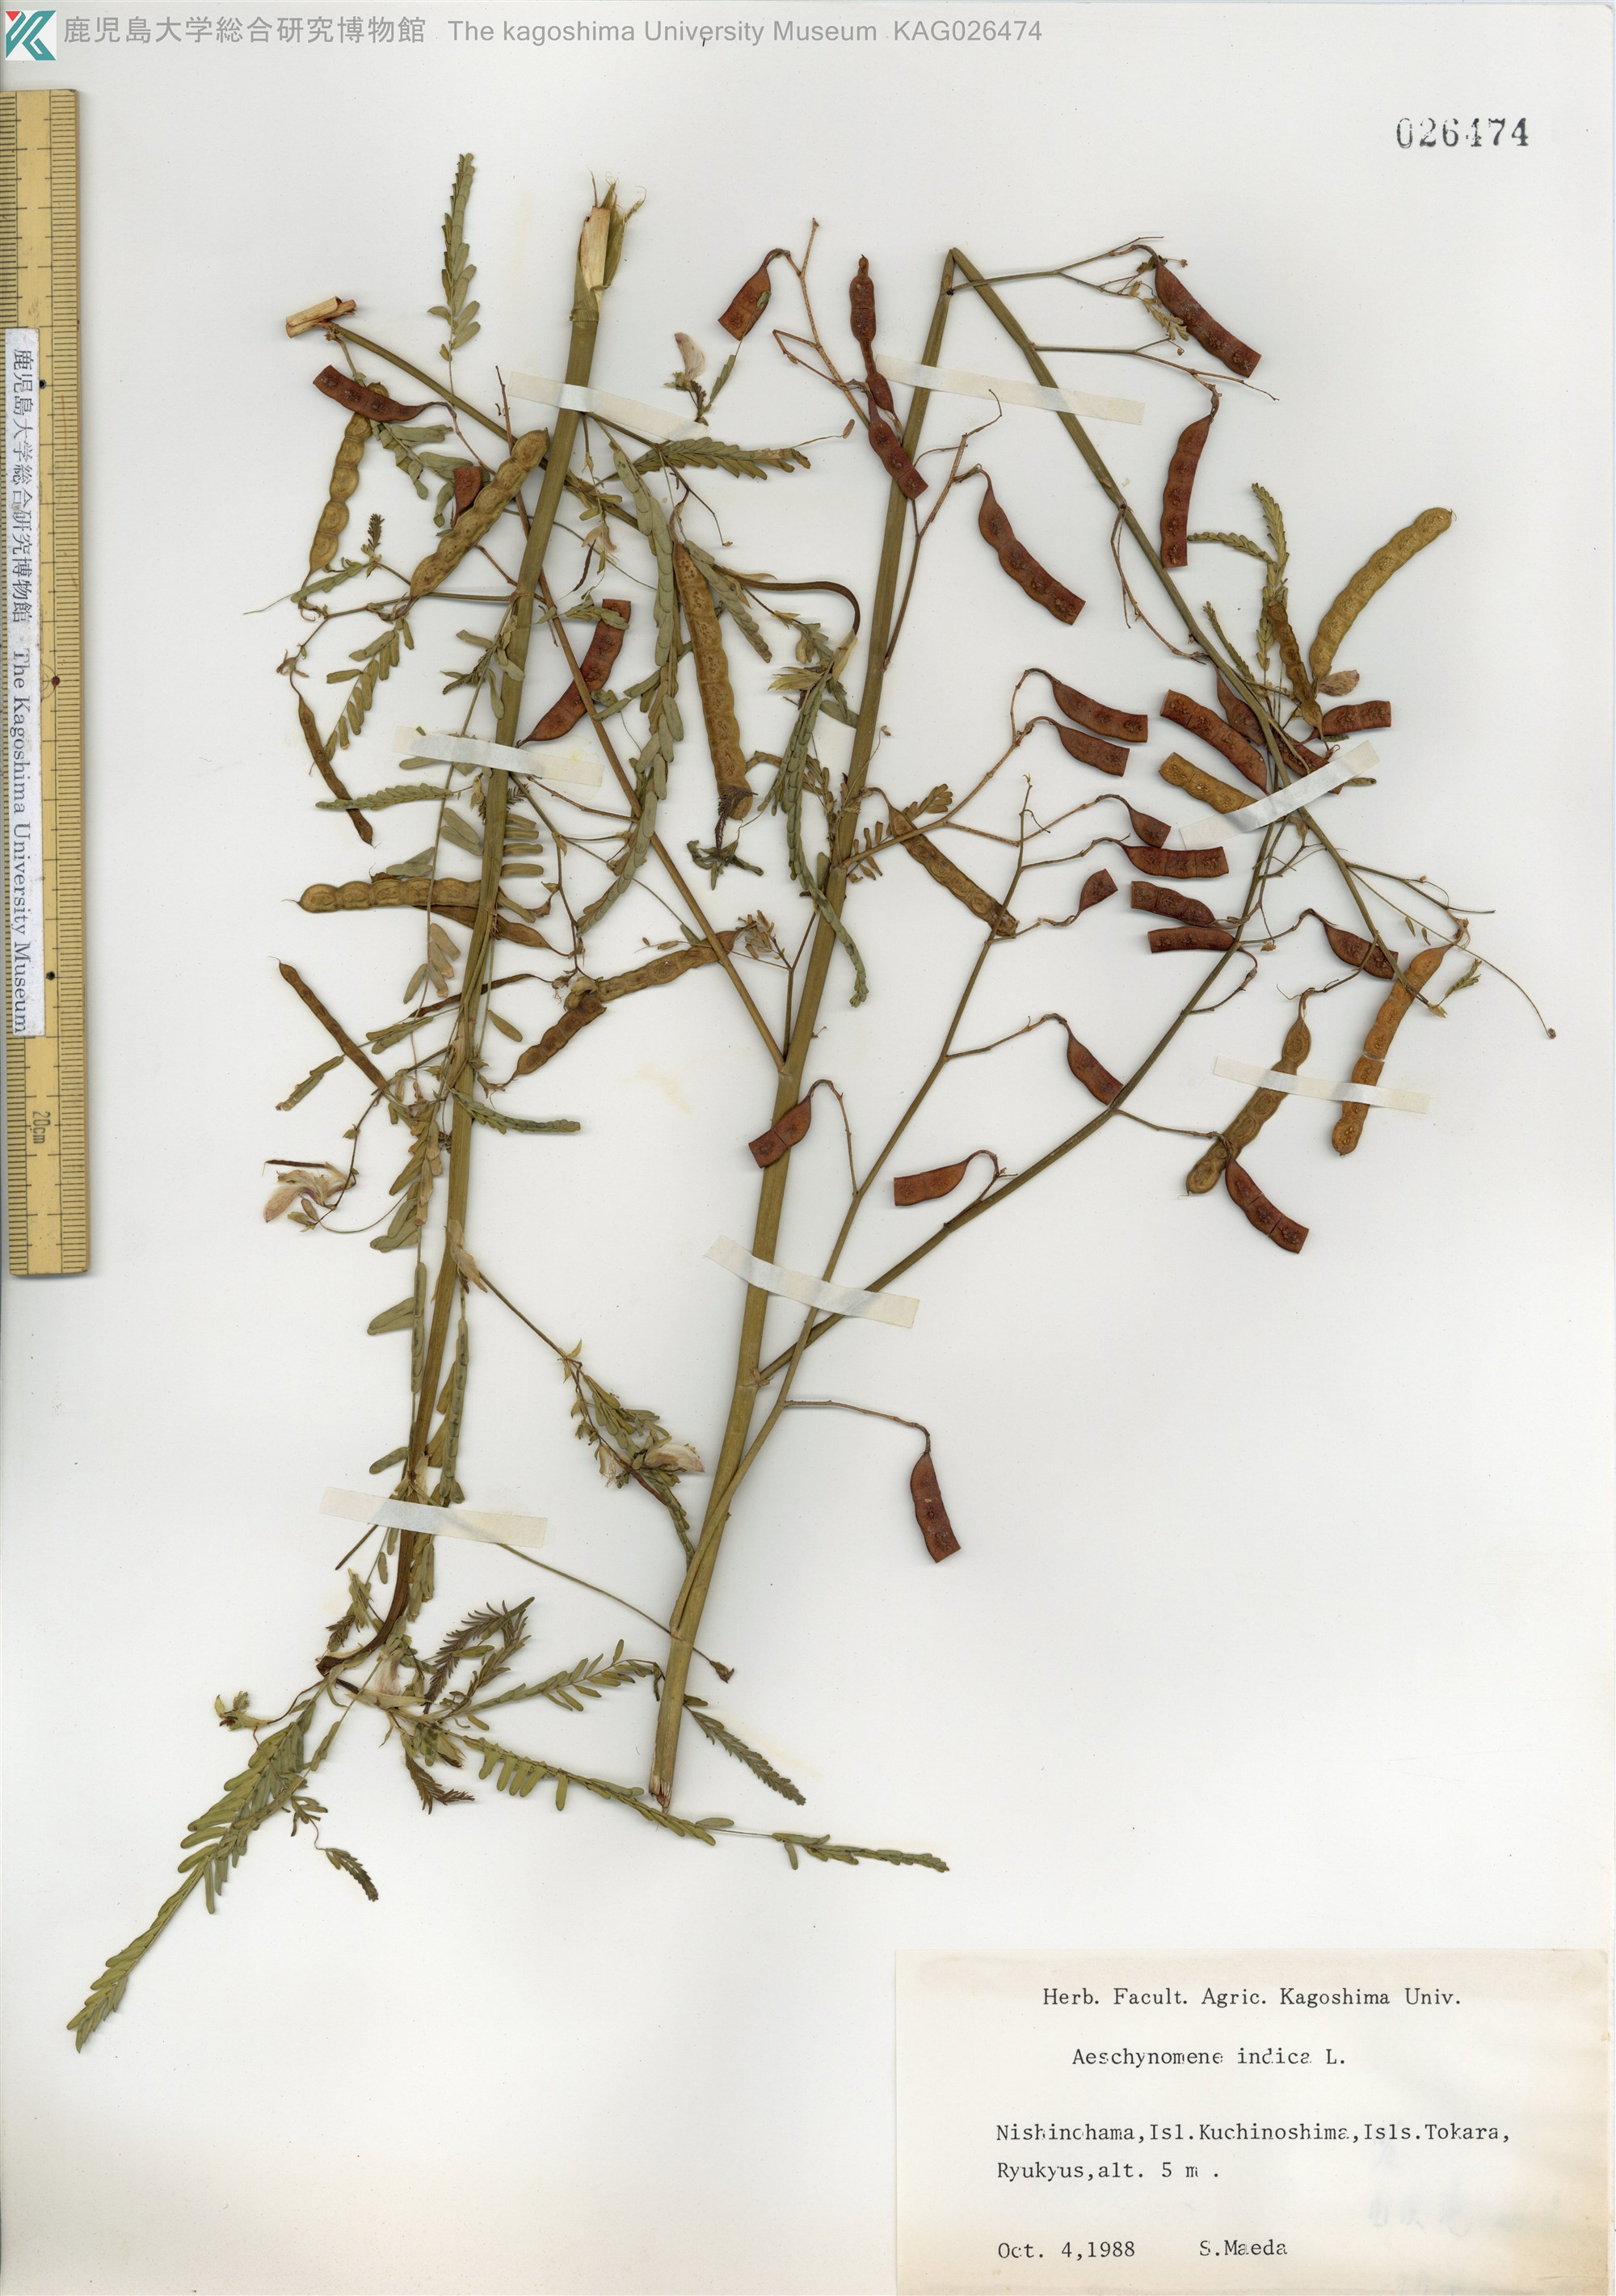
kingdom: Plantae
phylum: Tracheophyta
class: Magnoliopsida
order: Fabales
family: Fabaceae
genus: Aeschynomene
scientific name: Aeschynomene indica
